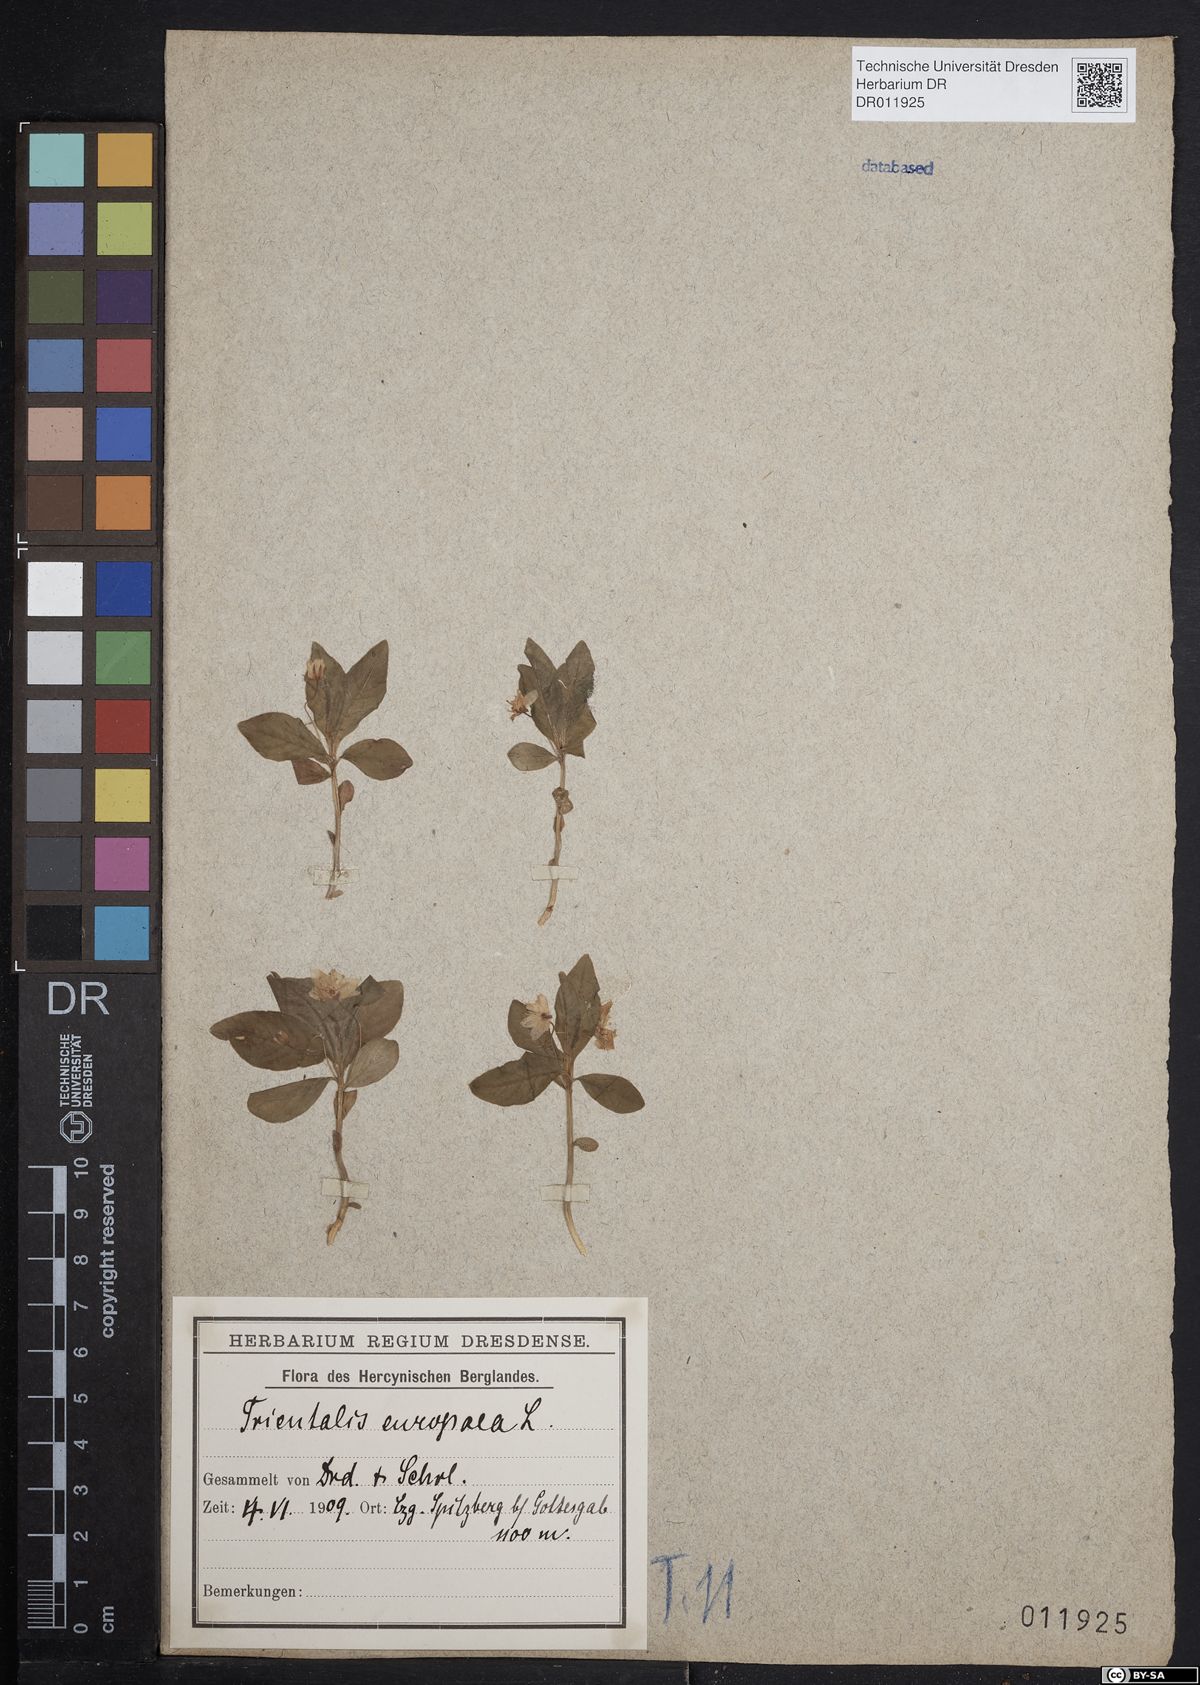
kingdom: Plantae
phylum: Tracheophyta
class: Magnoliopsida
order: Ericales
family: Primulaceae
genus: Lysimachia
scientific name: Lysimachia europaea
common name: Arctic starflower
